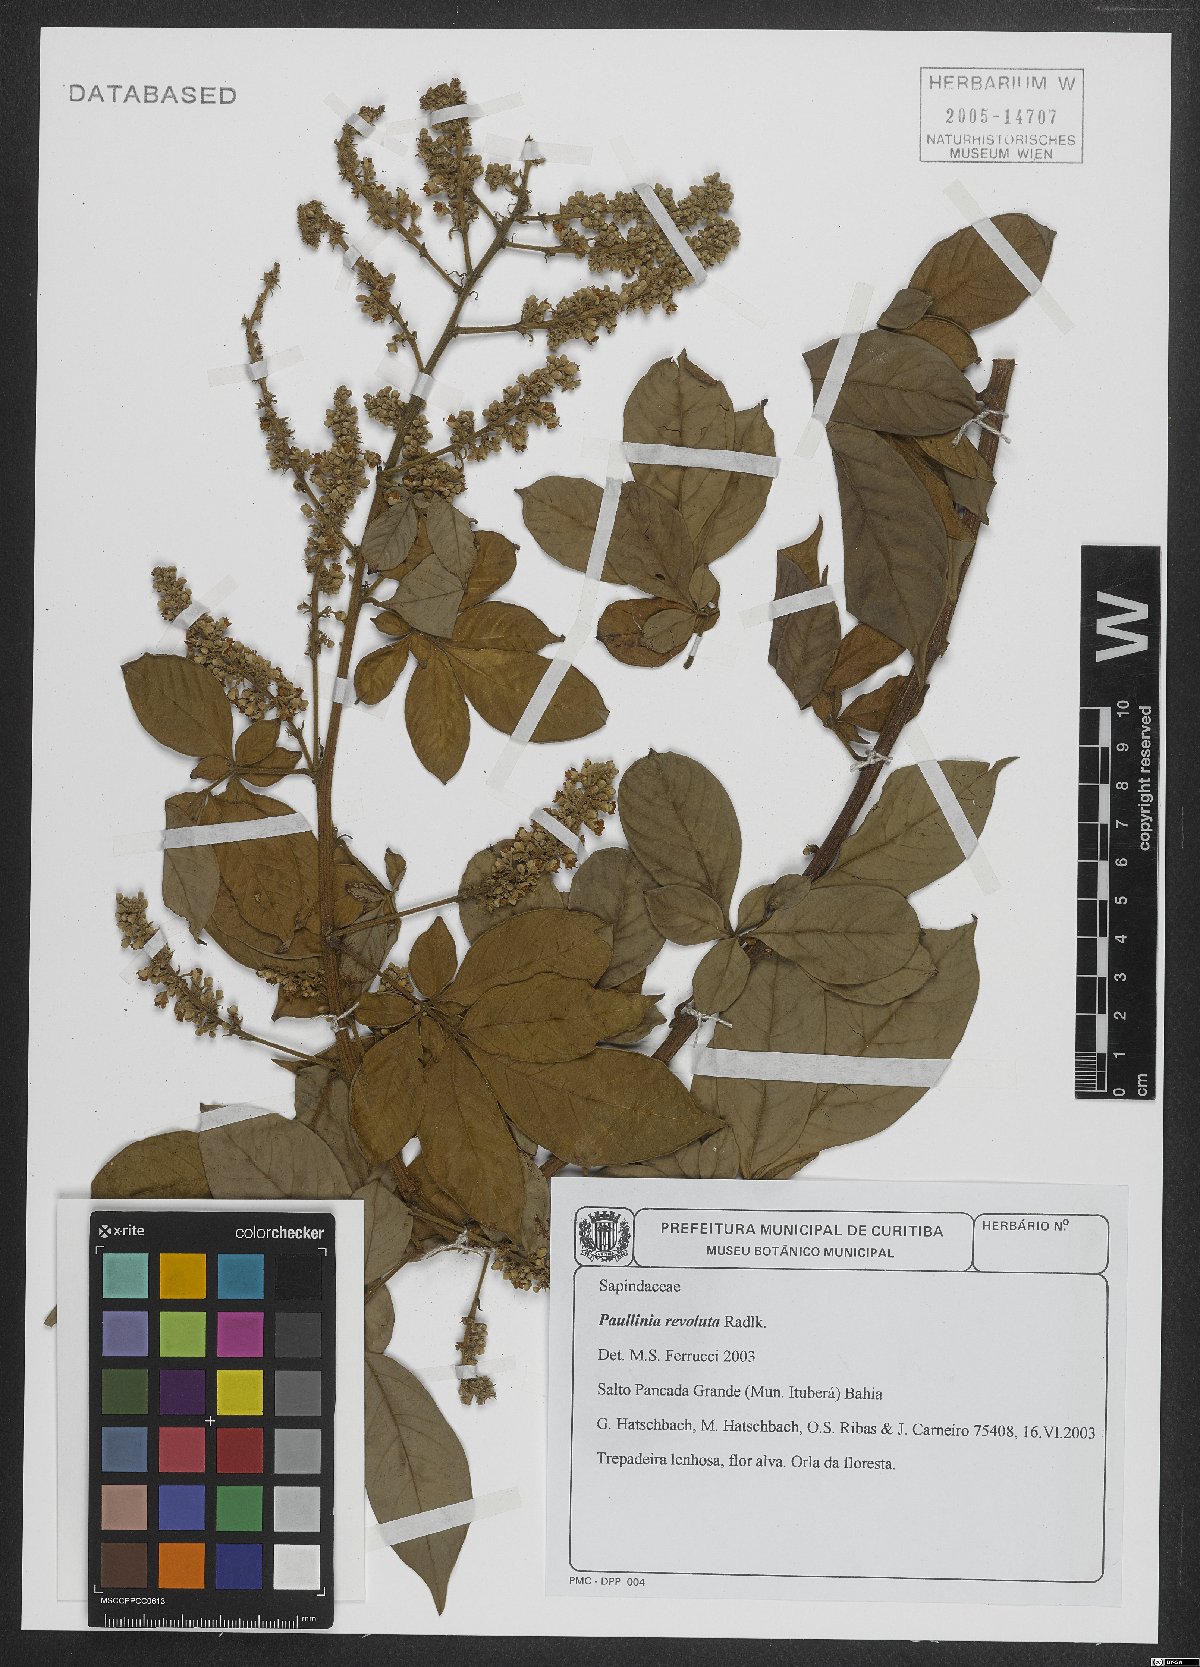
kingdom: Plantae
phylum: Tracheophyta
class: Magnoliopsida
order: Sapindales
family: Sapindaceae
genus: Paullinia
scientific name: Paullinia revoluta
